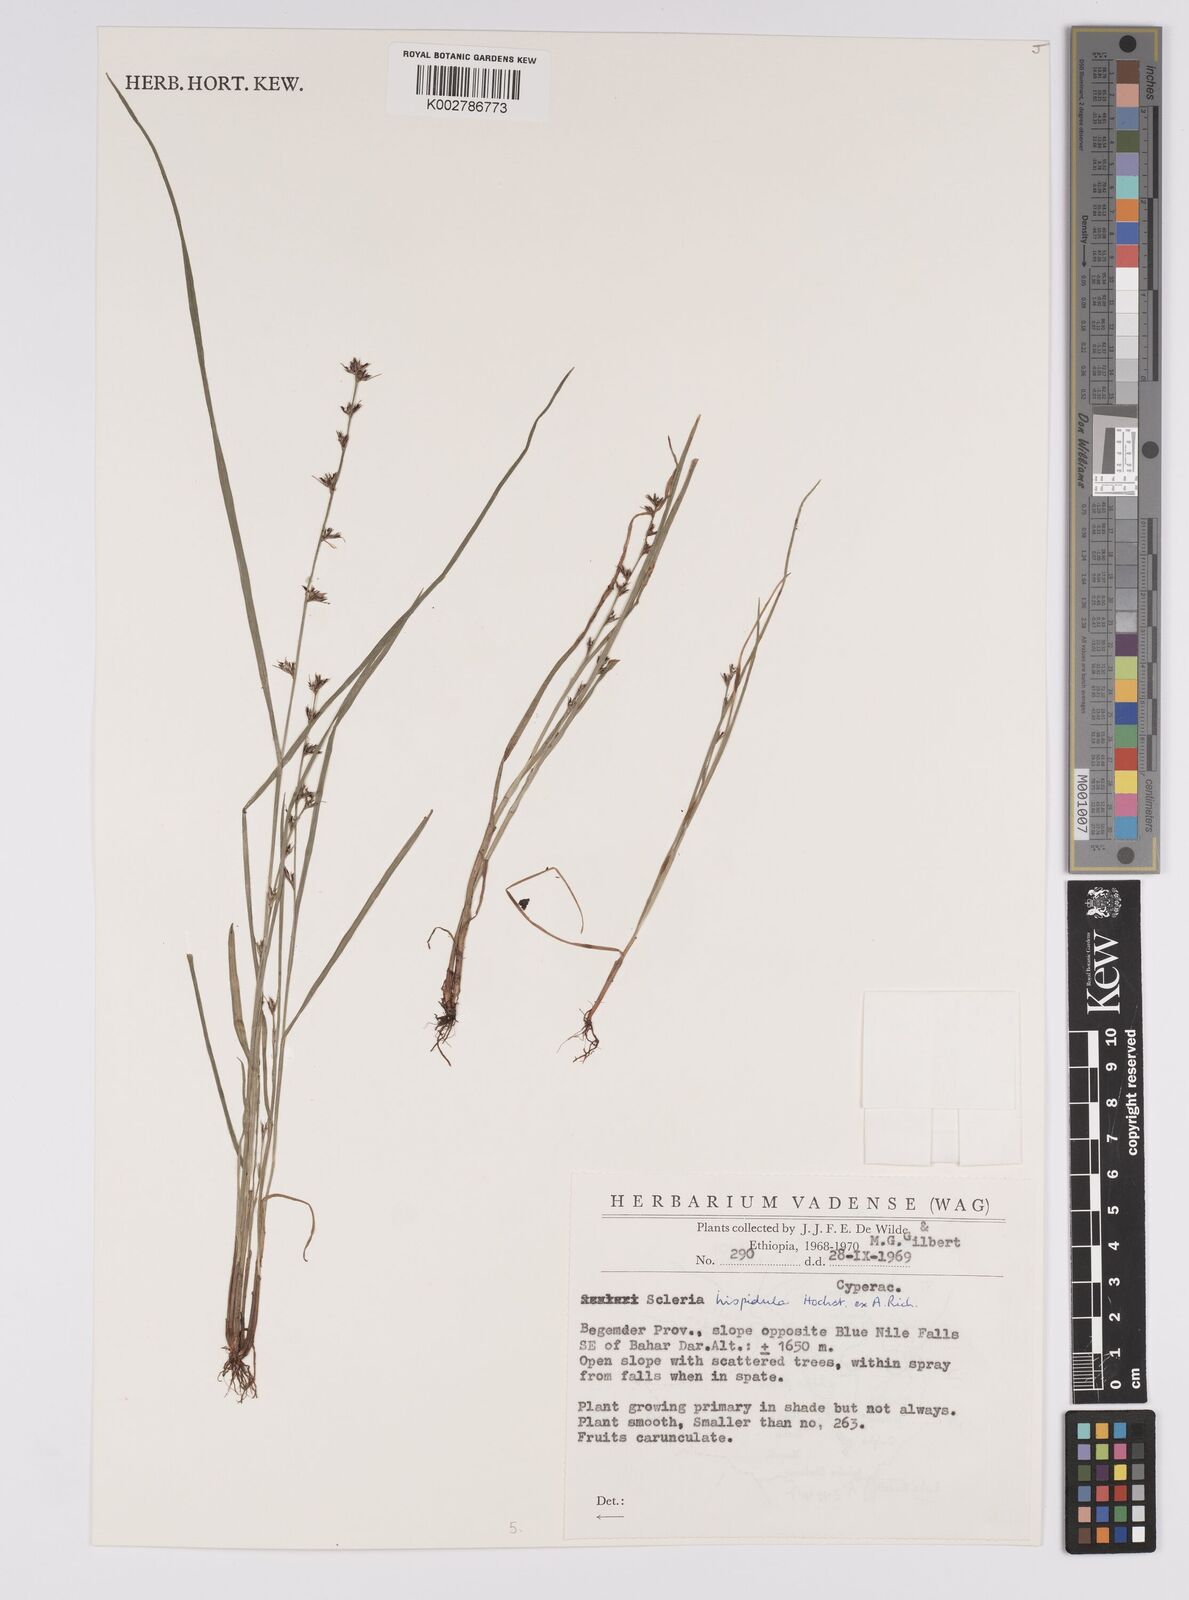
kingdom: Plantae
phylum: Tracheophyta
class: Liliopsida
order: Poales
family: Cyperaceae
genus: Scleria
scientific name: Scleria hispidula
